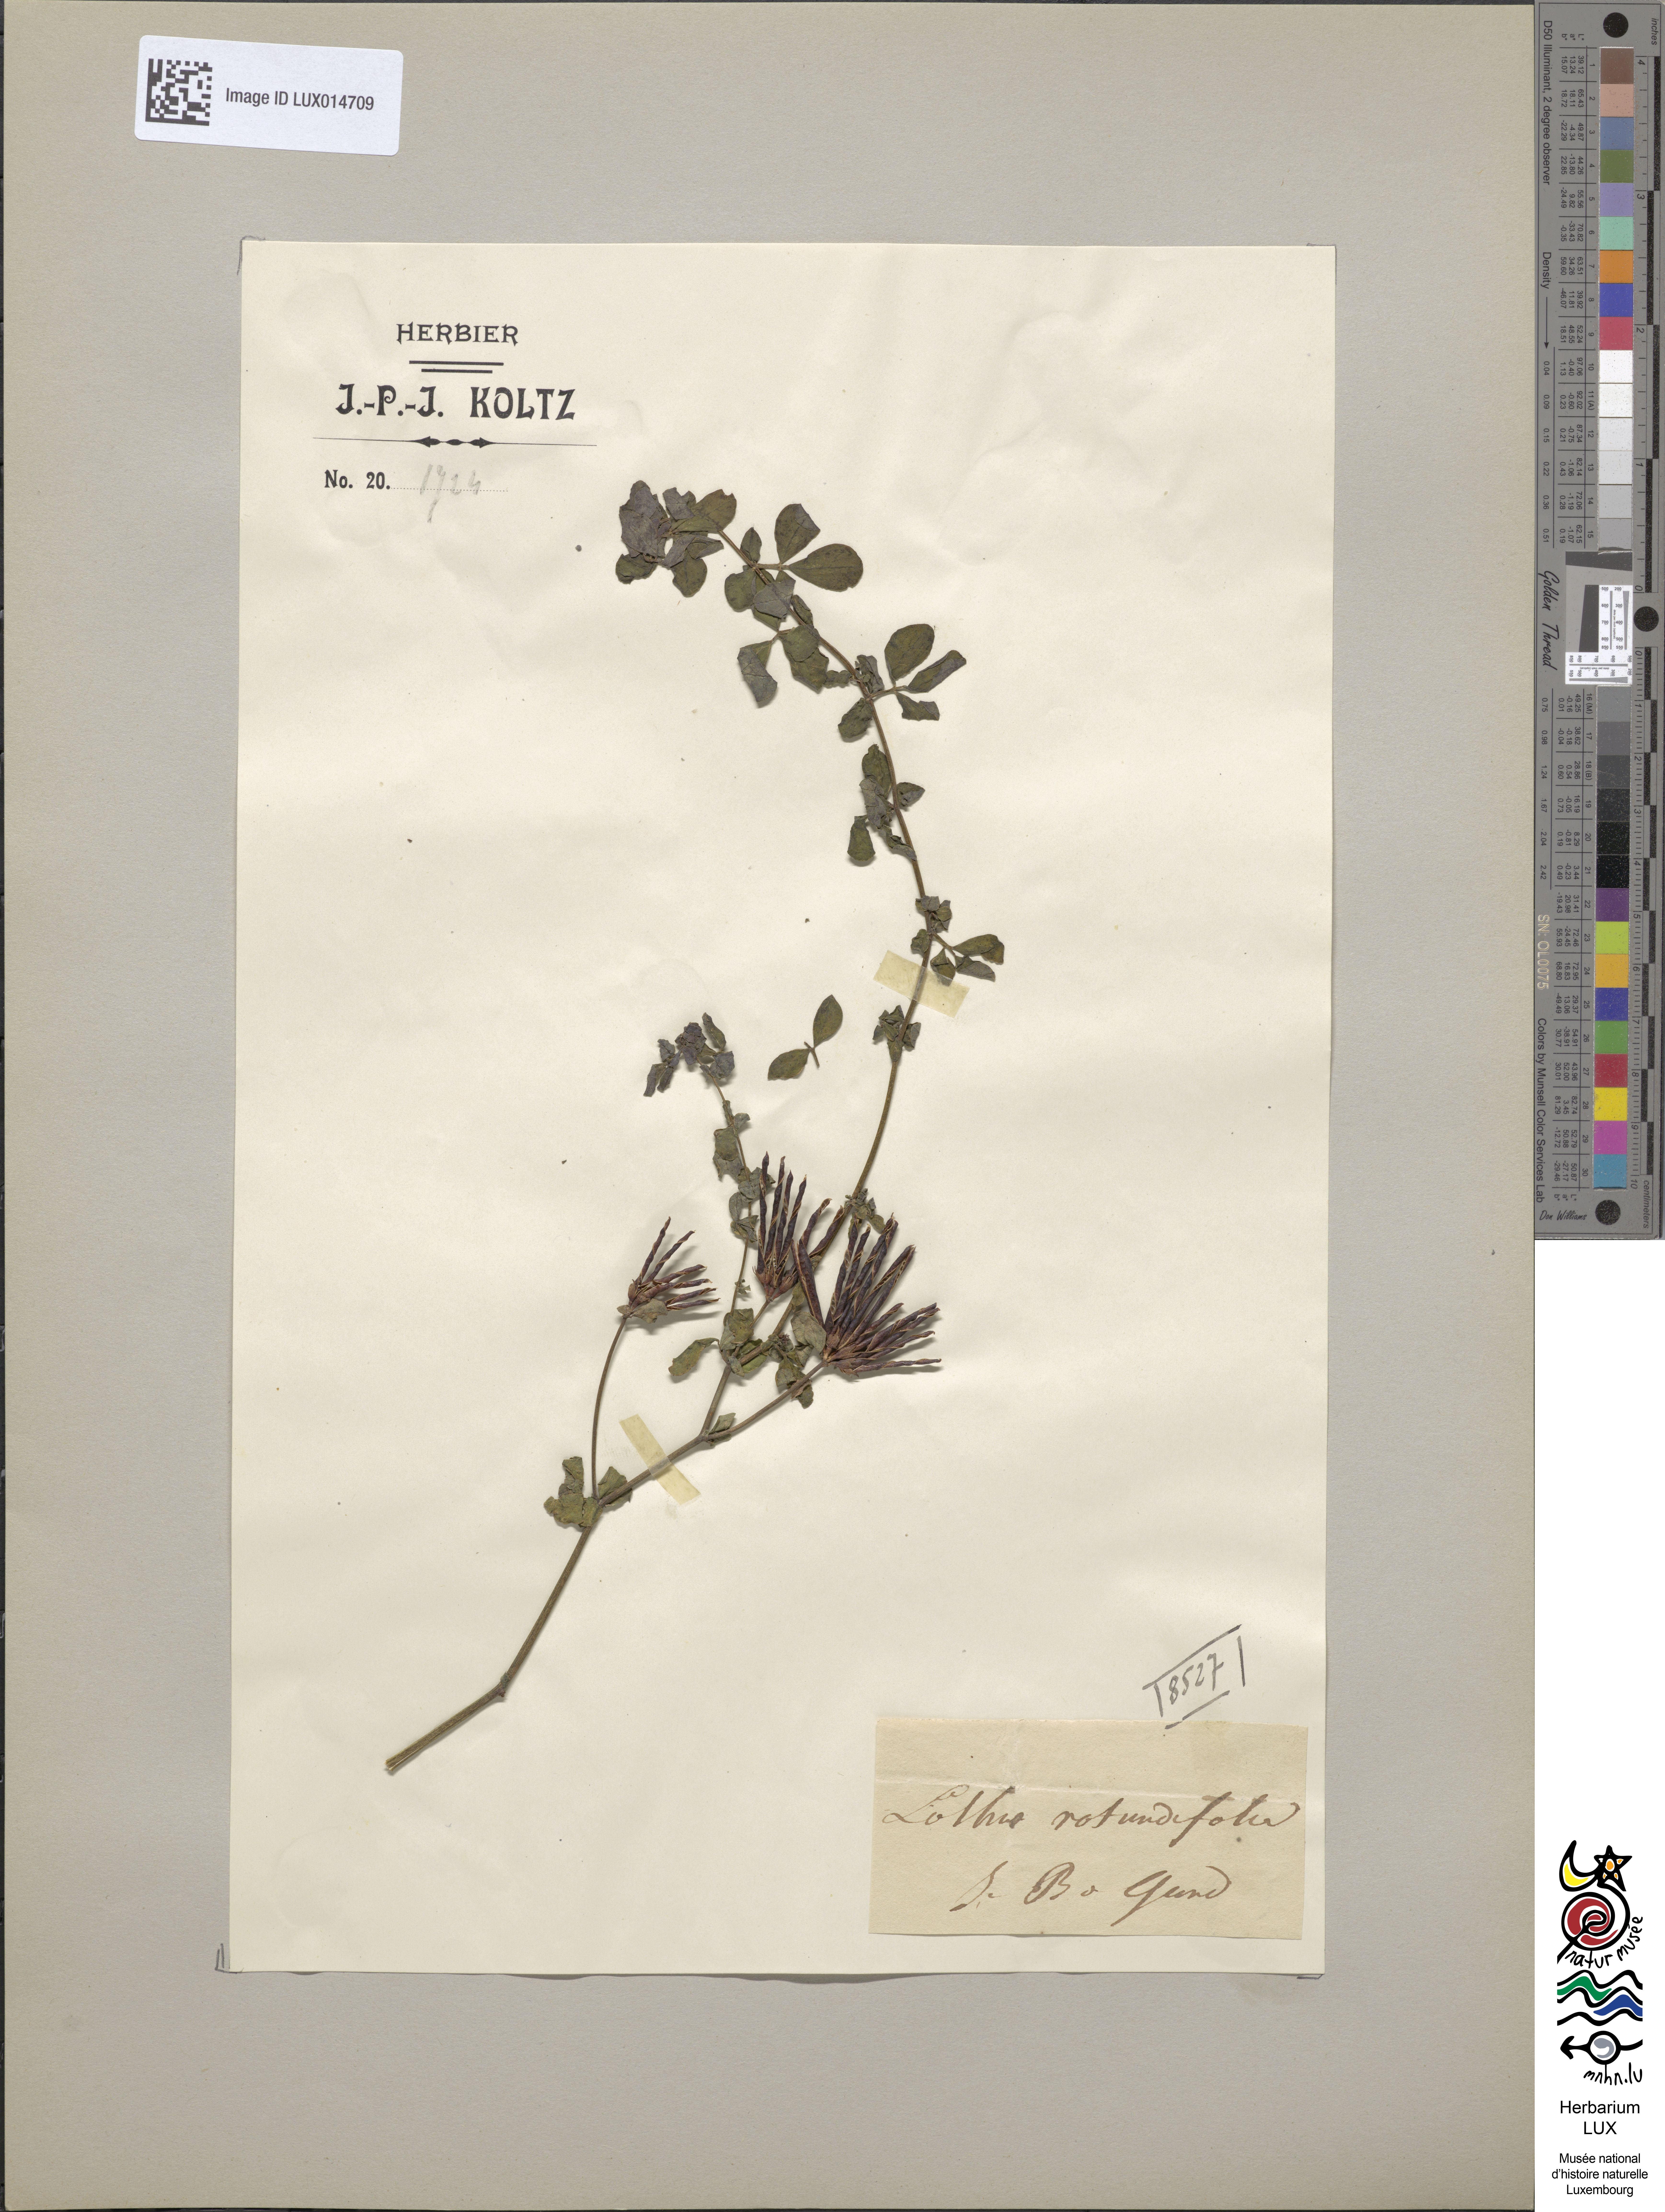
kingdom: Plantae
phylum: Tracheophyta
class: Magnoliopsida
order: Fabales
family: Fabaceae
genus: Lotus
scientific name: Lotus
